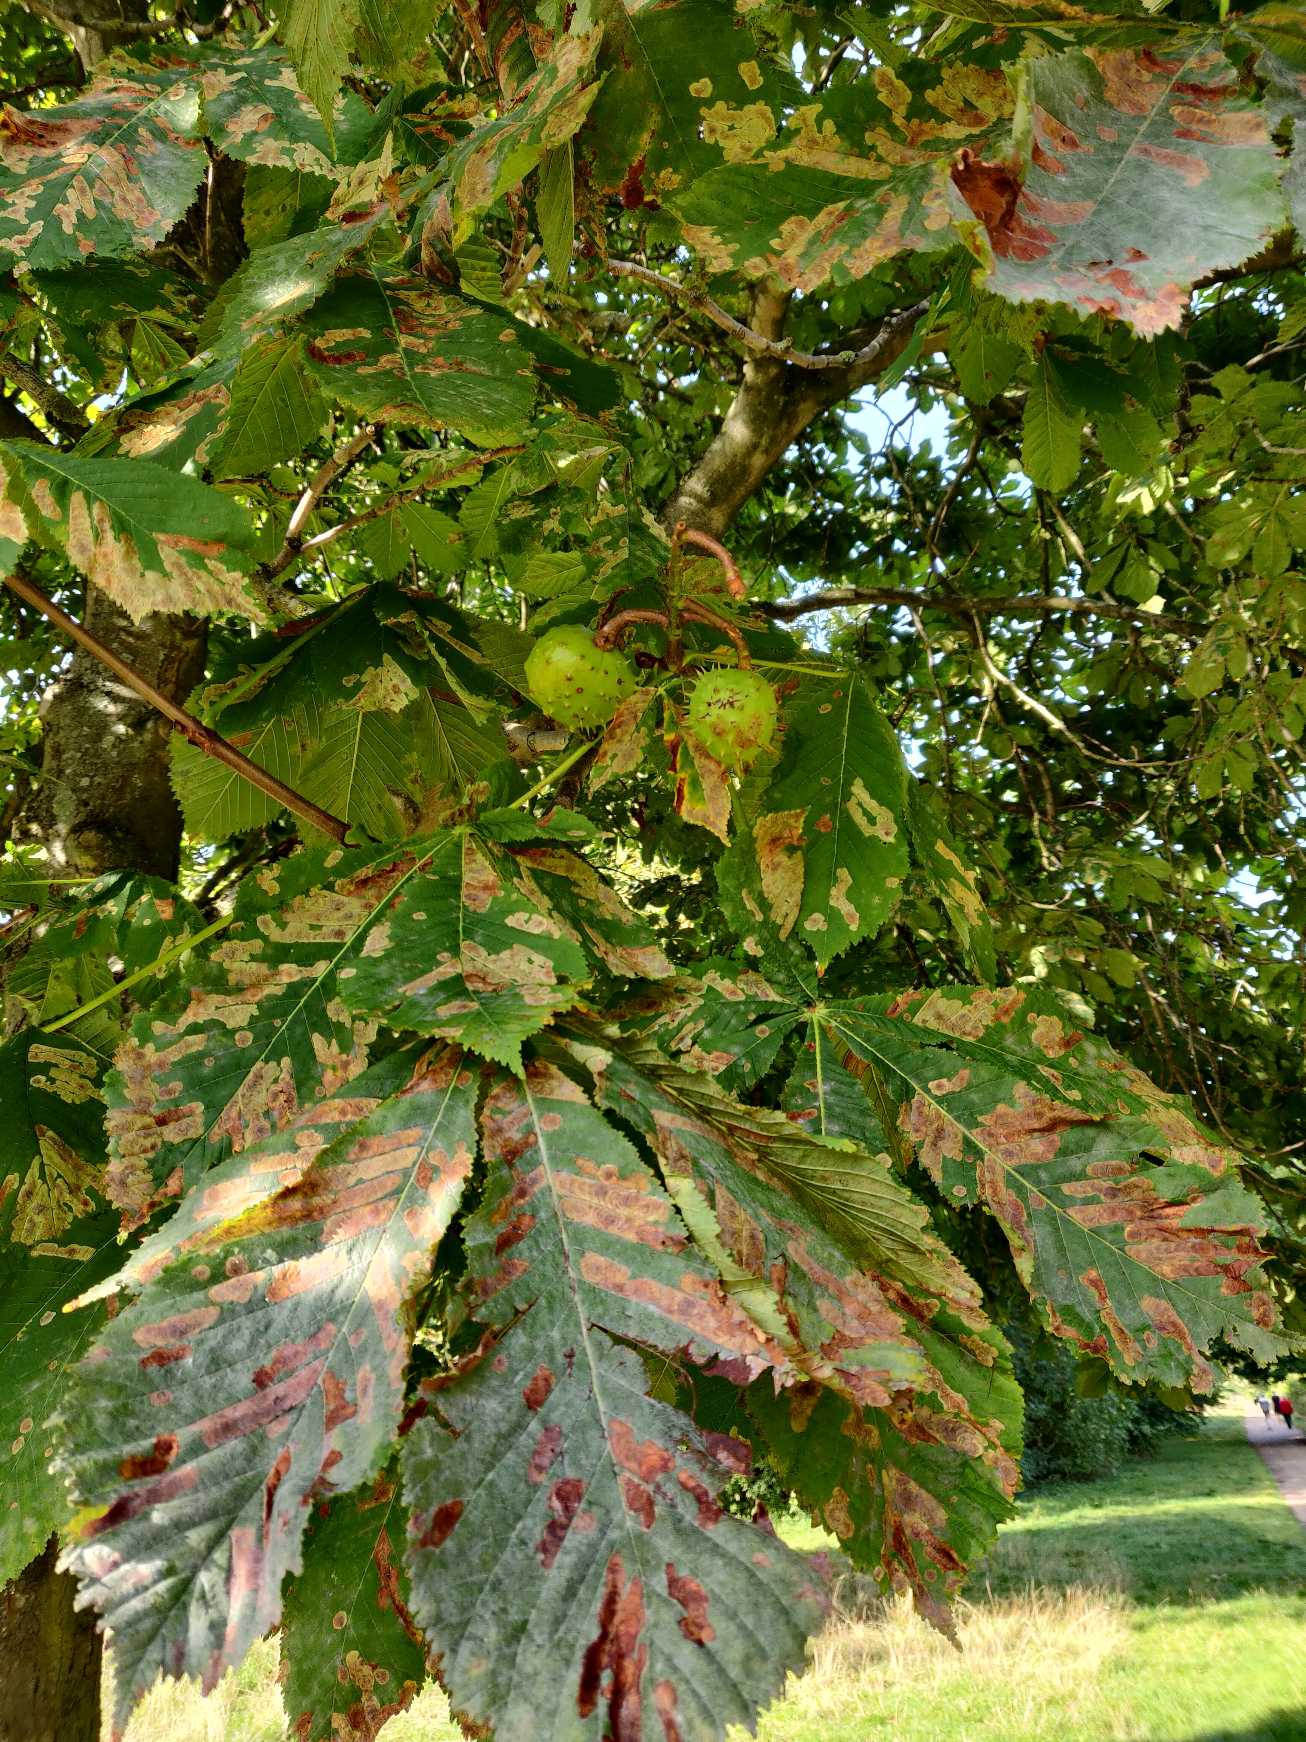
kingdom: Plantae
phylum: Tracheophyta
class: Magnoliopsida
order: Sapindales
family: Sapindaceae
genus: Aesculus
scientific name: Aesculus hippocastanum
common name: Hestekastanie
